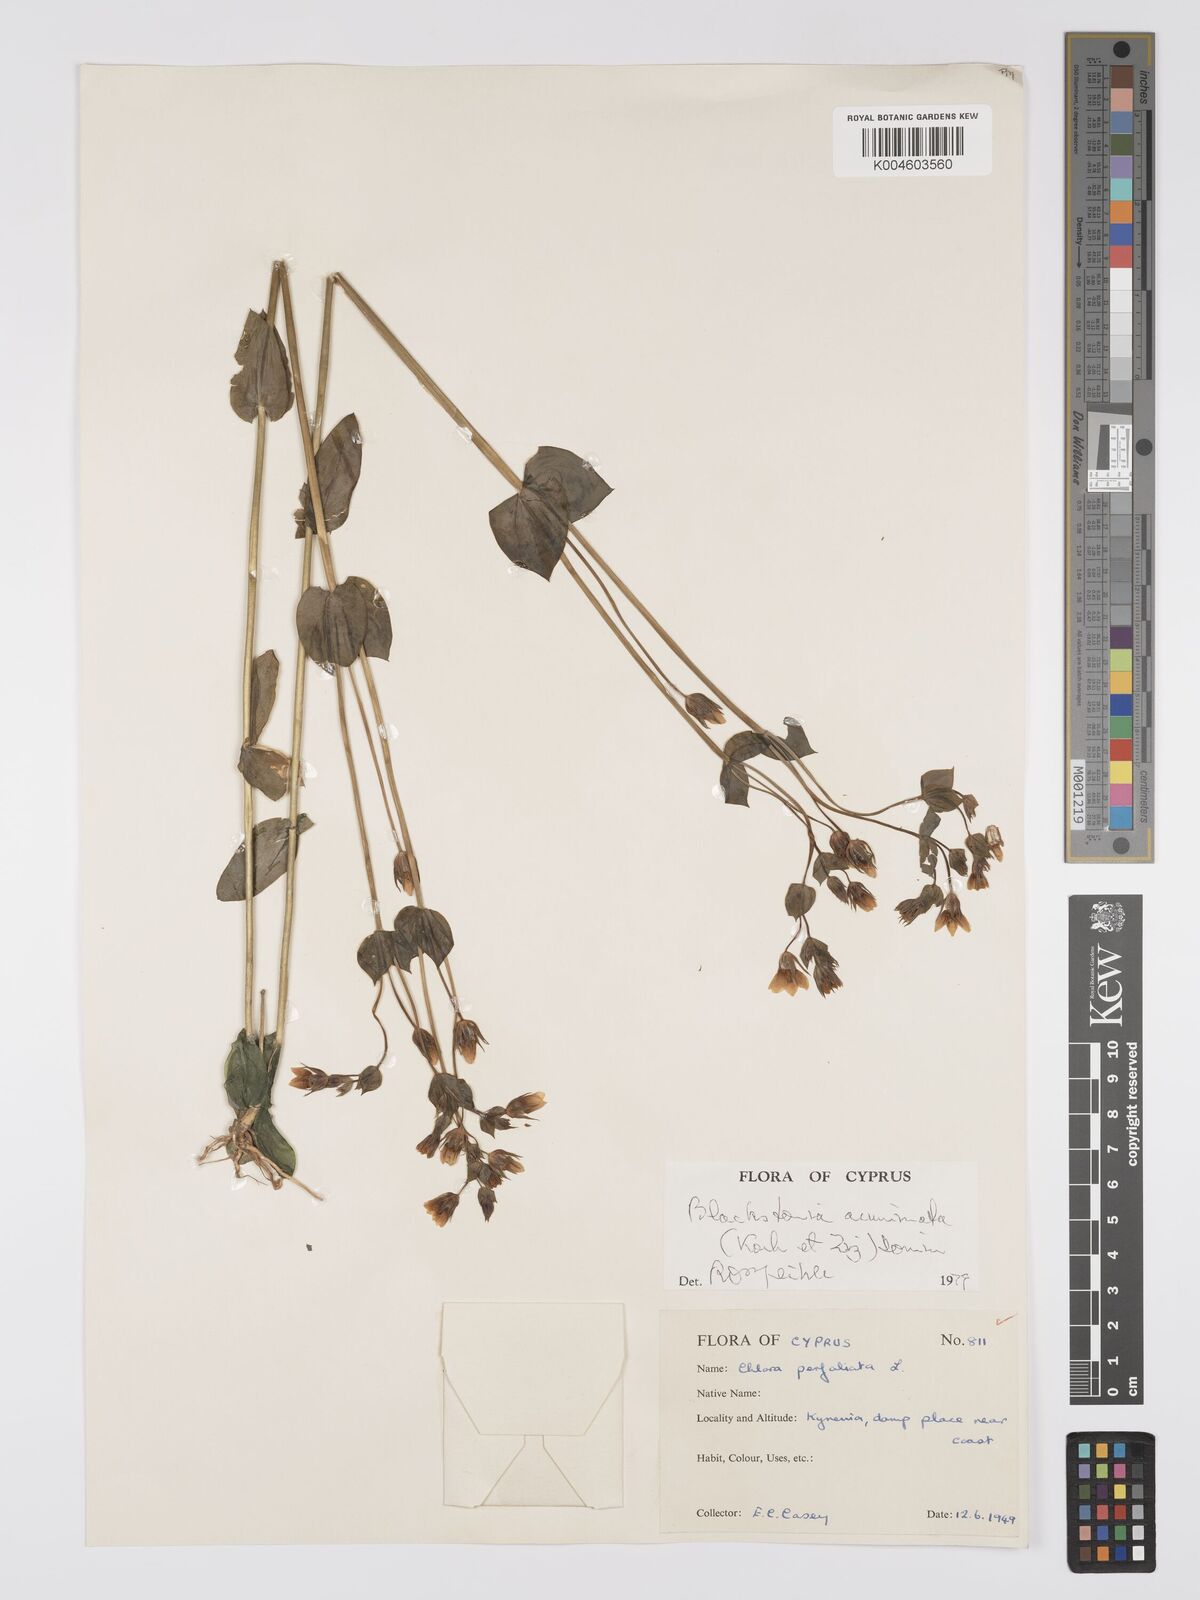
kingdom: Plantae
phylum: Tracheophyta
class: Magnoliopsida
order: Gentianales
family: Gentianaceae
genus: Blackstonia
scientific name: Blackstonia acuminata
